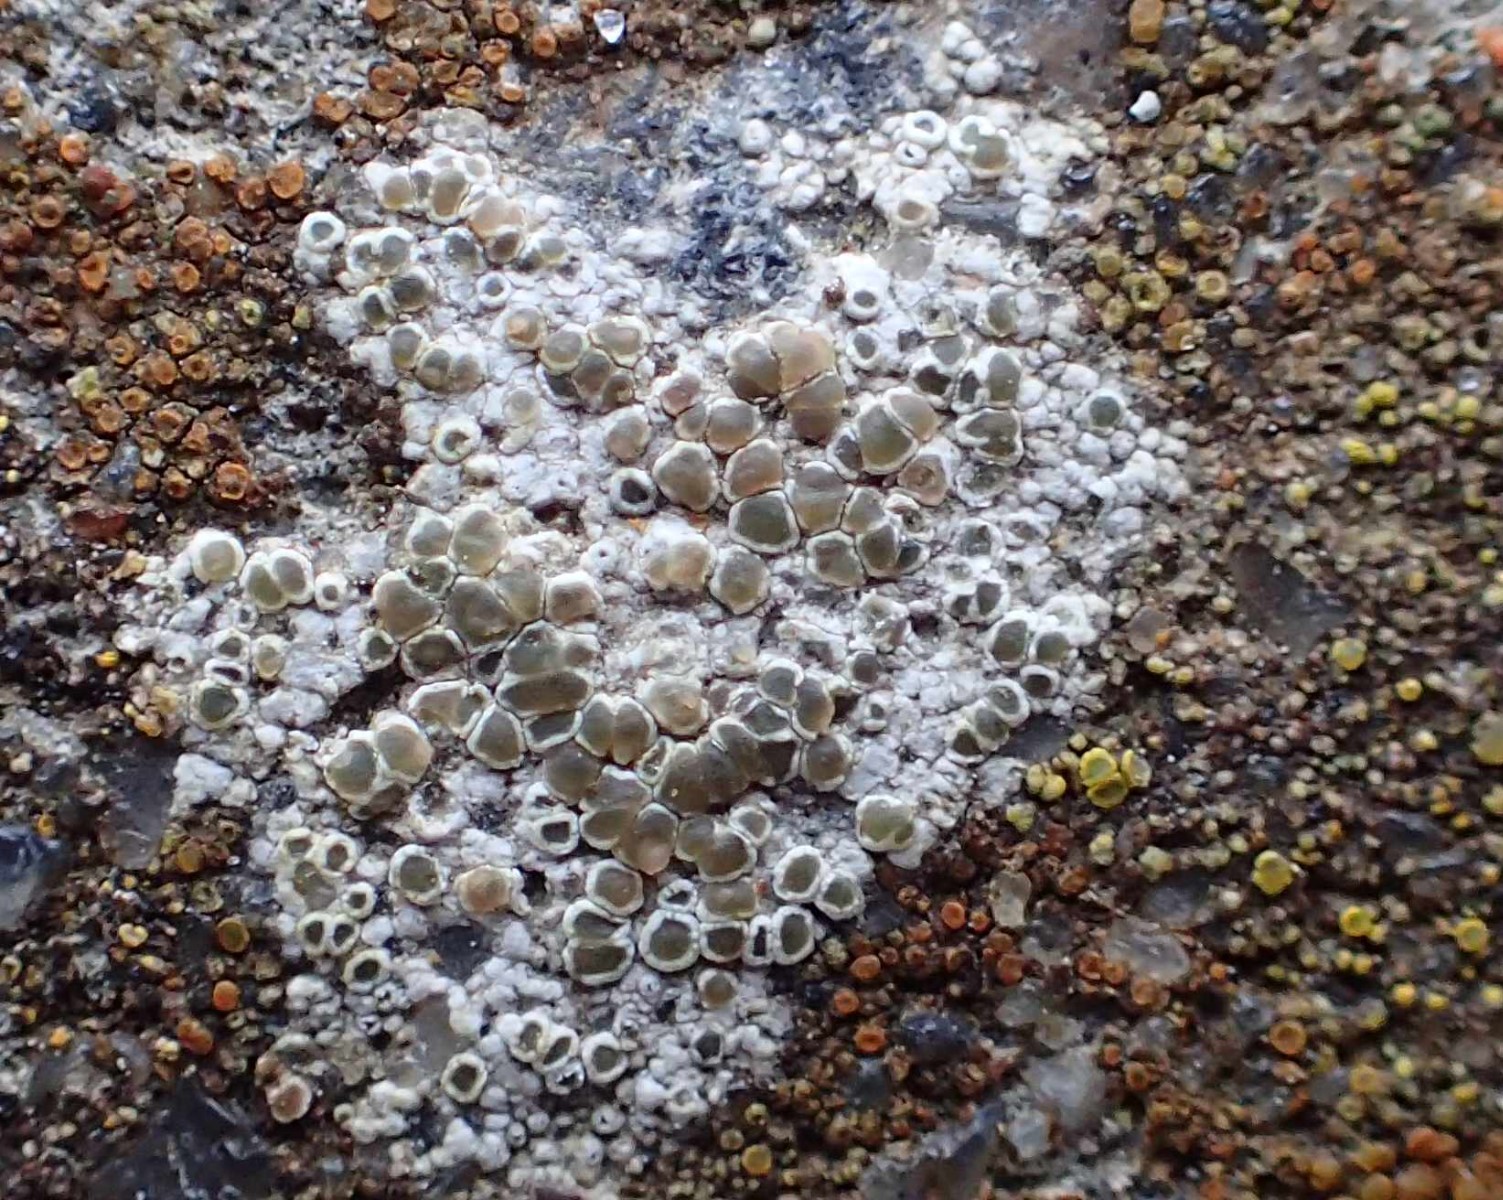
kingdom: Fungi
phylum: Ascomycota
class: Lecanoromycetes
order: Lecanorales
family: Lecanoraceae
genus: Polyozosia
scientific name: Polyozosia albescens
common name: cement-kantskivelav
